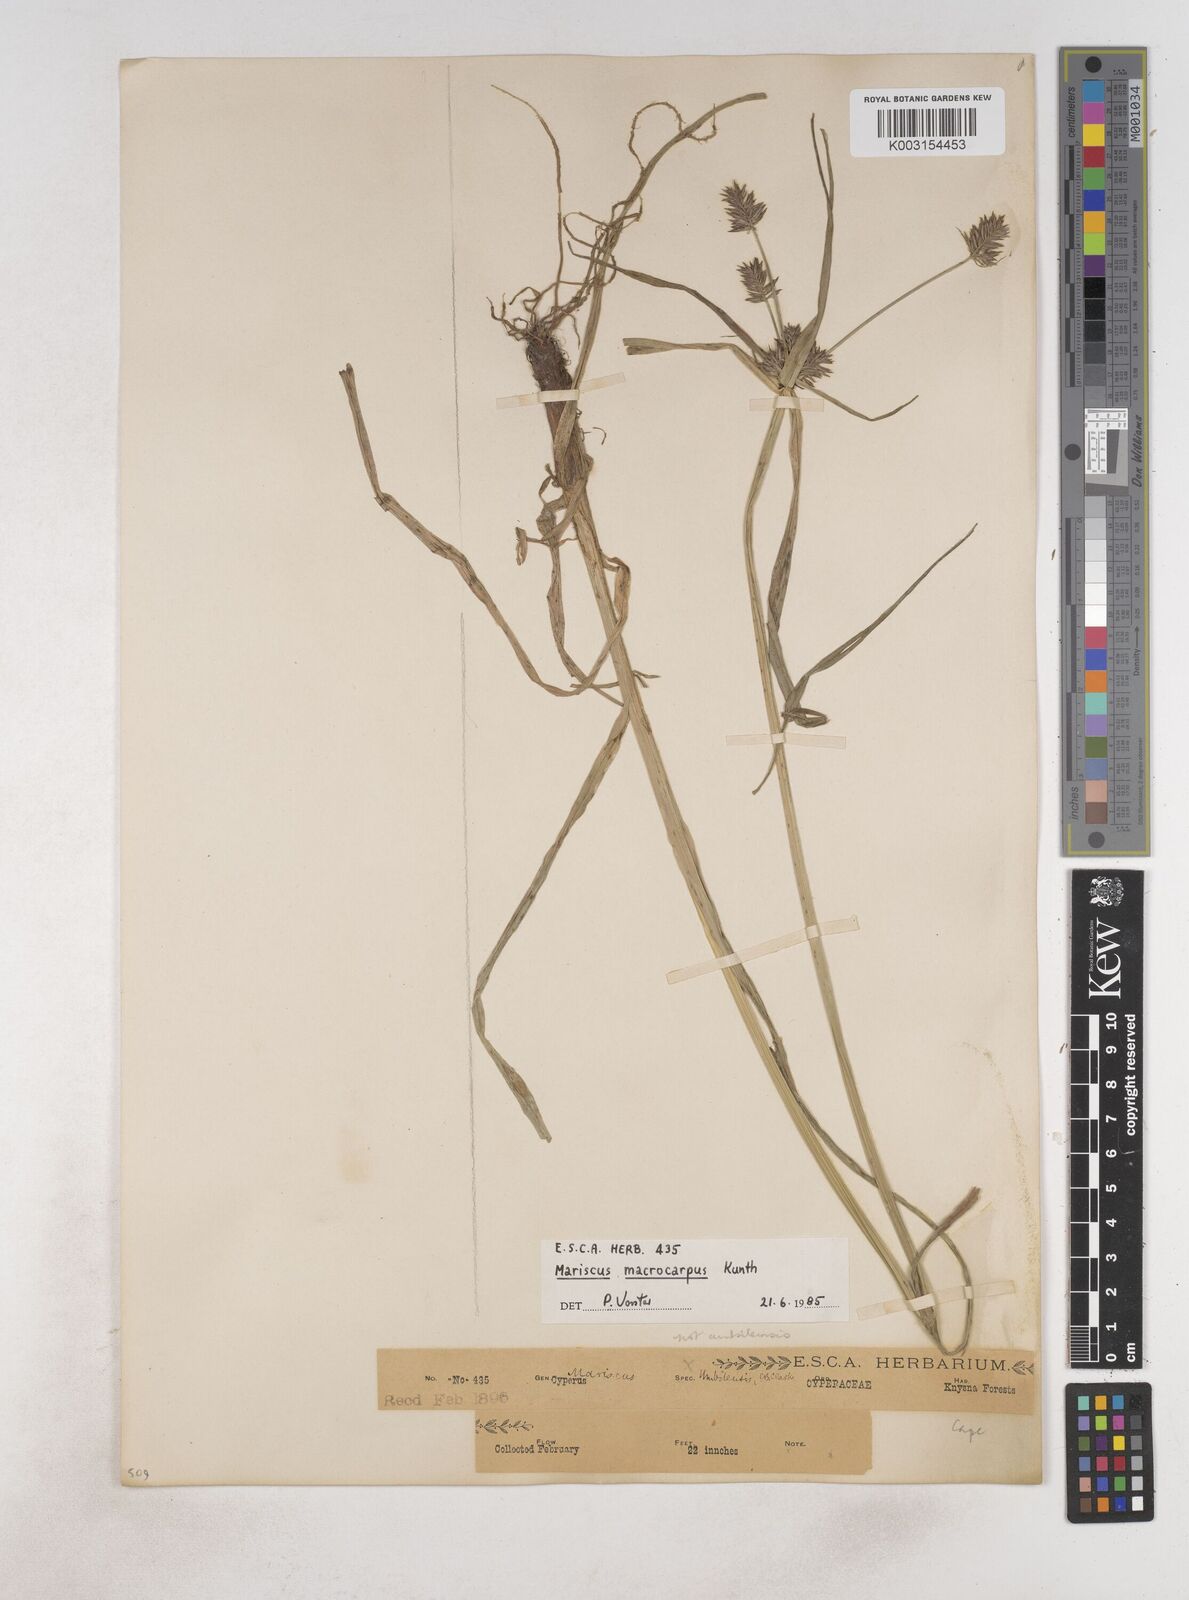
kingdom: Plantae
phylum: Tracheophyta
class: Liliopsida
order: Poales
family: Cyperaceae
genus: Cyperus
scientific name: Cyperus macrocarpus
